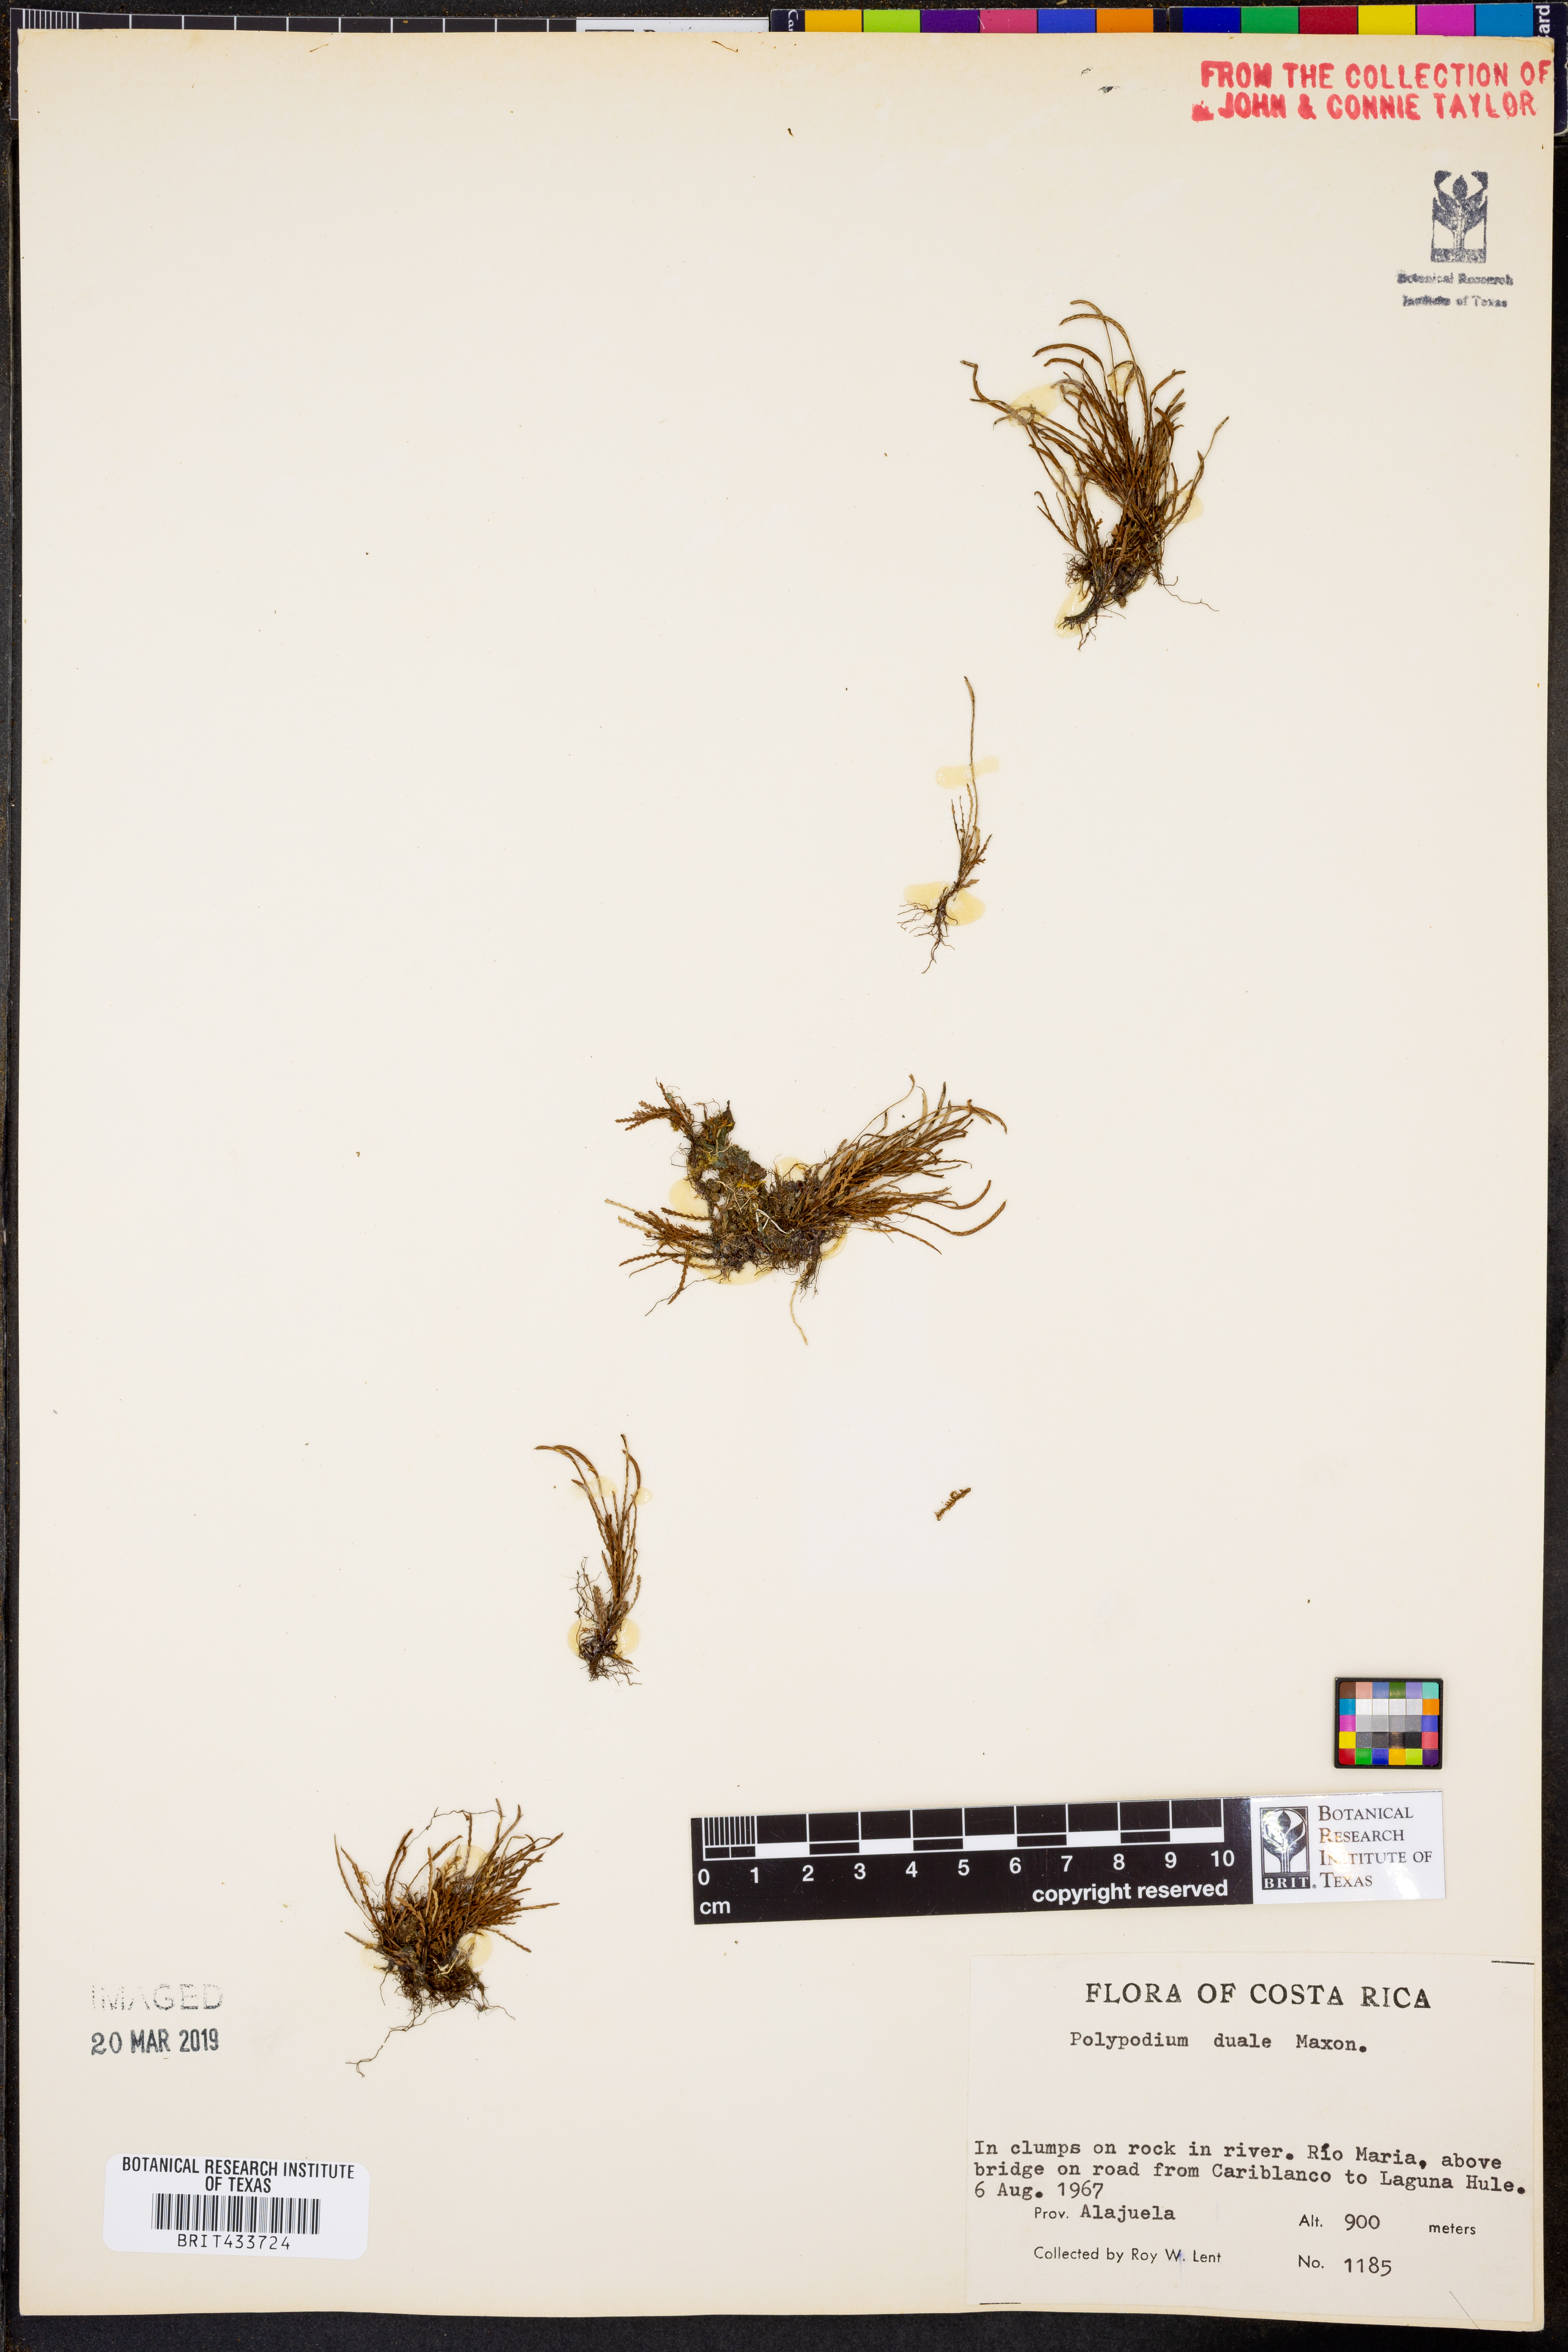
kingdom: Plantae
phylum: Tracheophyta
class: Polypodiopsida
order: Polypodiales
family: Polypodiaceae
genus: Cochlidium
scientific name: Cochlidium serrulatum
